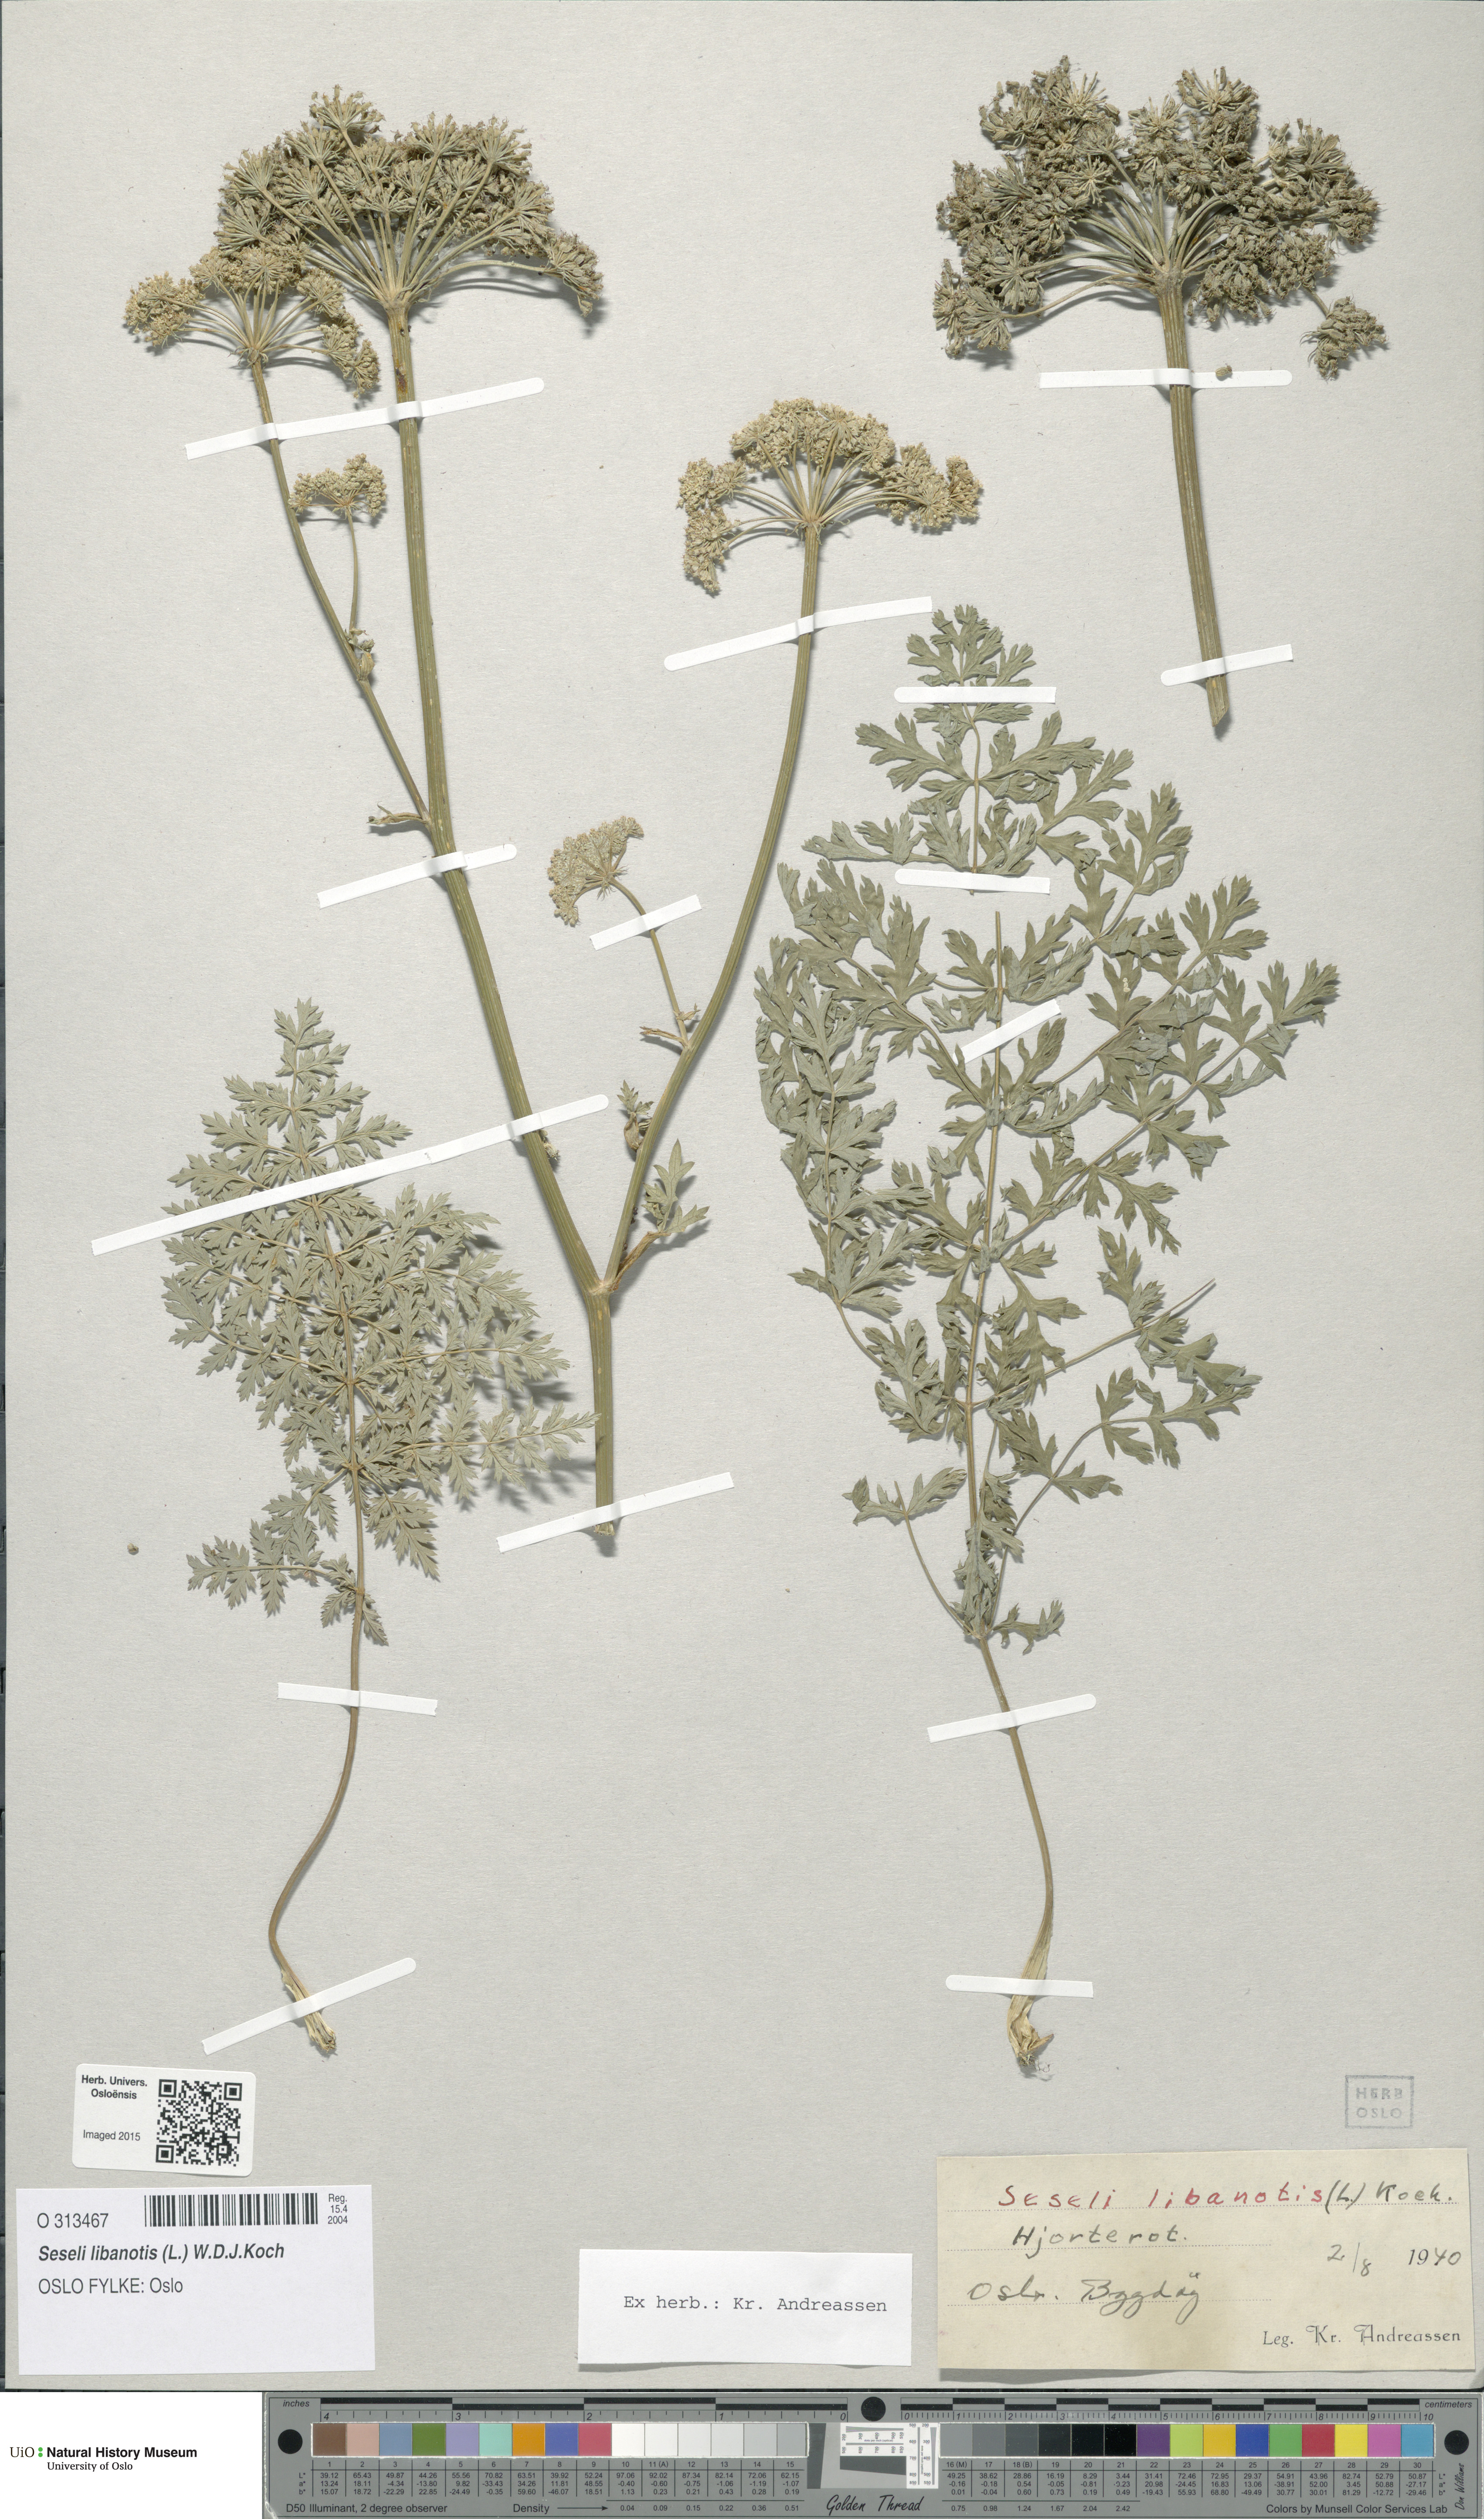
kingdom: Plantae
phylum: Tracheophyta
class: Magnoliopsida
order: Apiales
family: Apiaceae
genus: Seseli
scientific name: Seseli libanotis
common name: Mooncarrot
